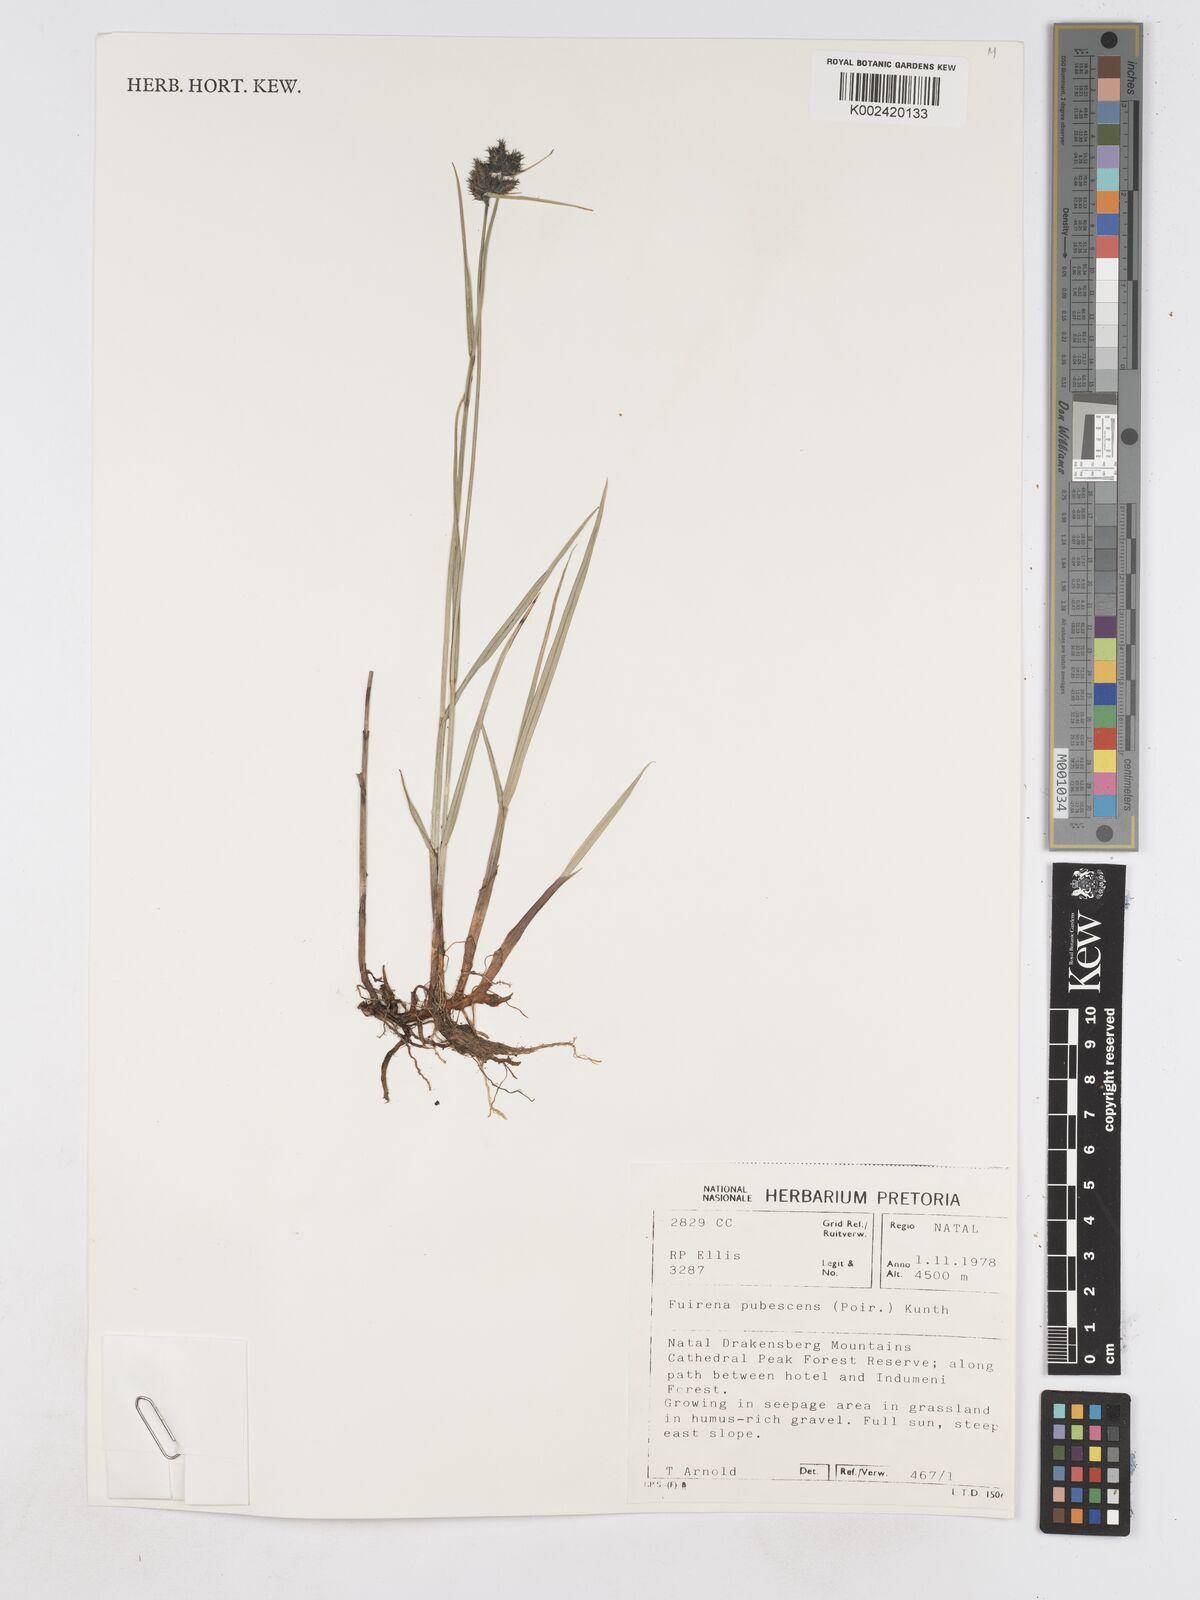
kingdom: Plantae
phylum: Tracheophyta
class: Liliopsida
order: Poales
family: Cyperaceae
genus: Fuirena
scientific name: Fuirena pubescens
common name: Hairy sedge
